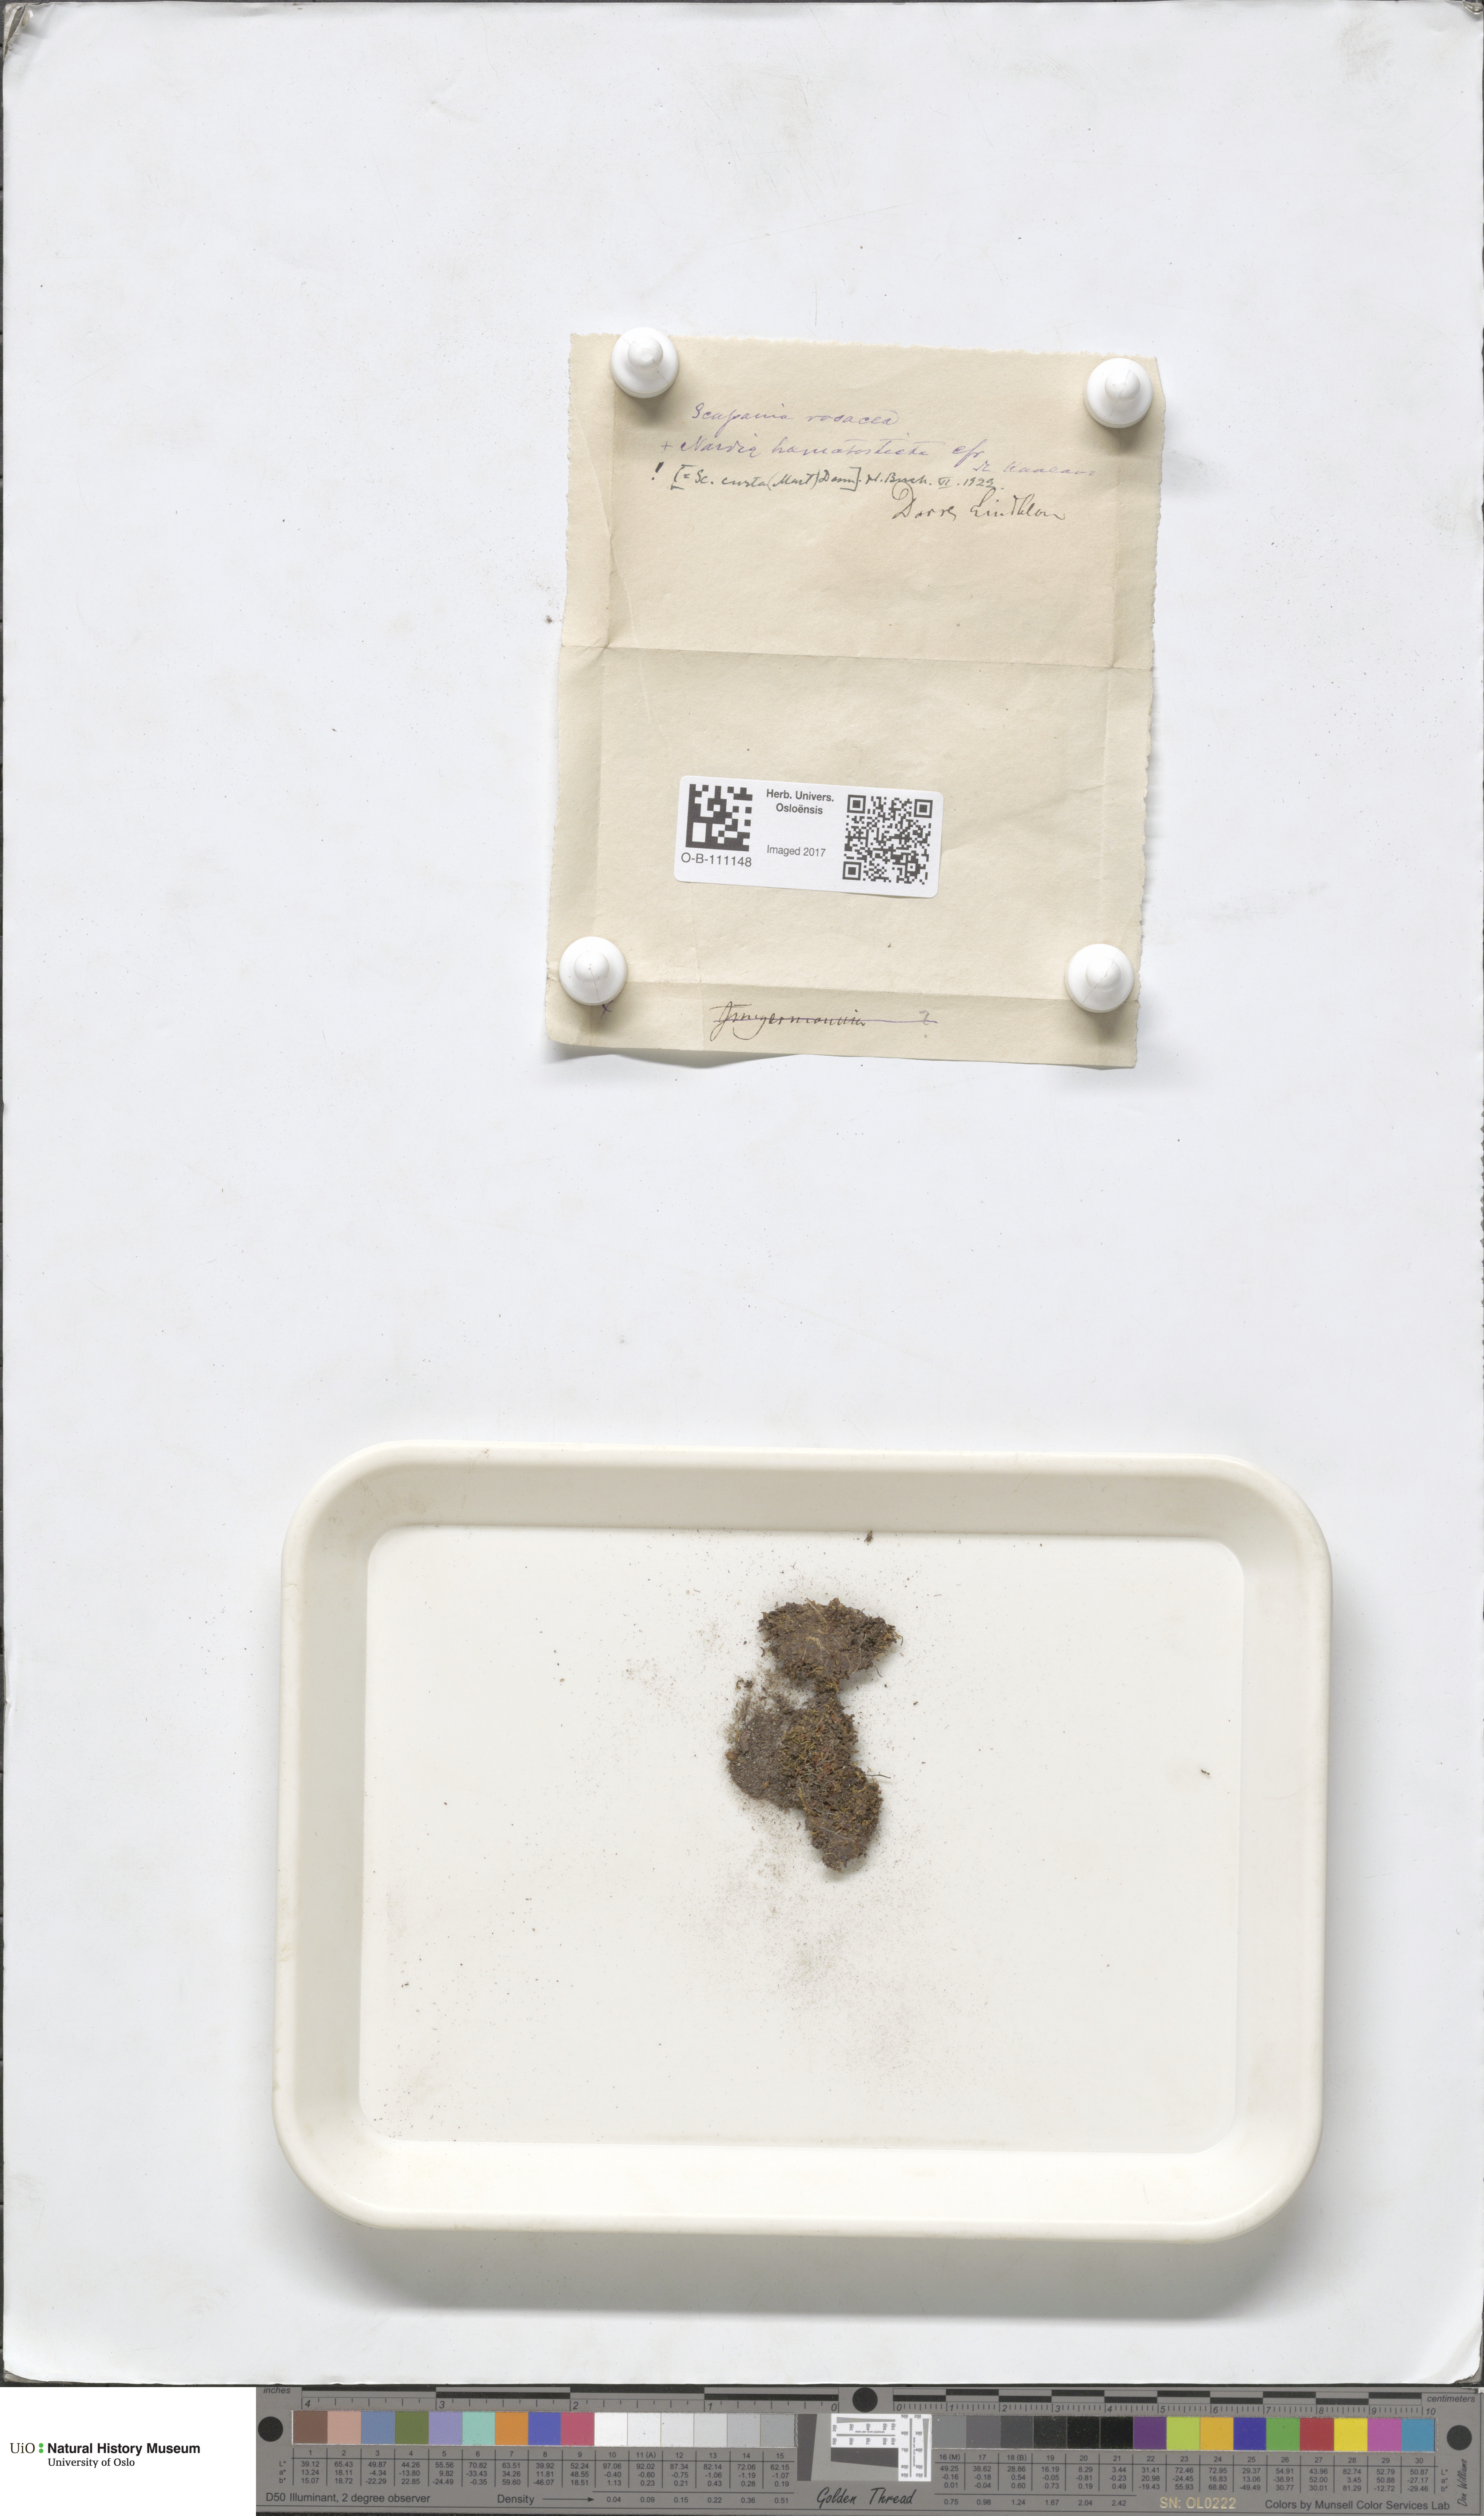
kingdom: Plantae
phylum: Marchantiophyta
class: Jungermanniopsida
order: Jungermanniales
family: Scapaniaceae
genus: Scapania
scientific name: Scapania curta
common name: Least earwort
